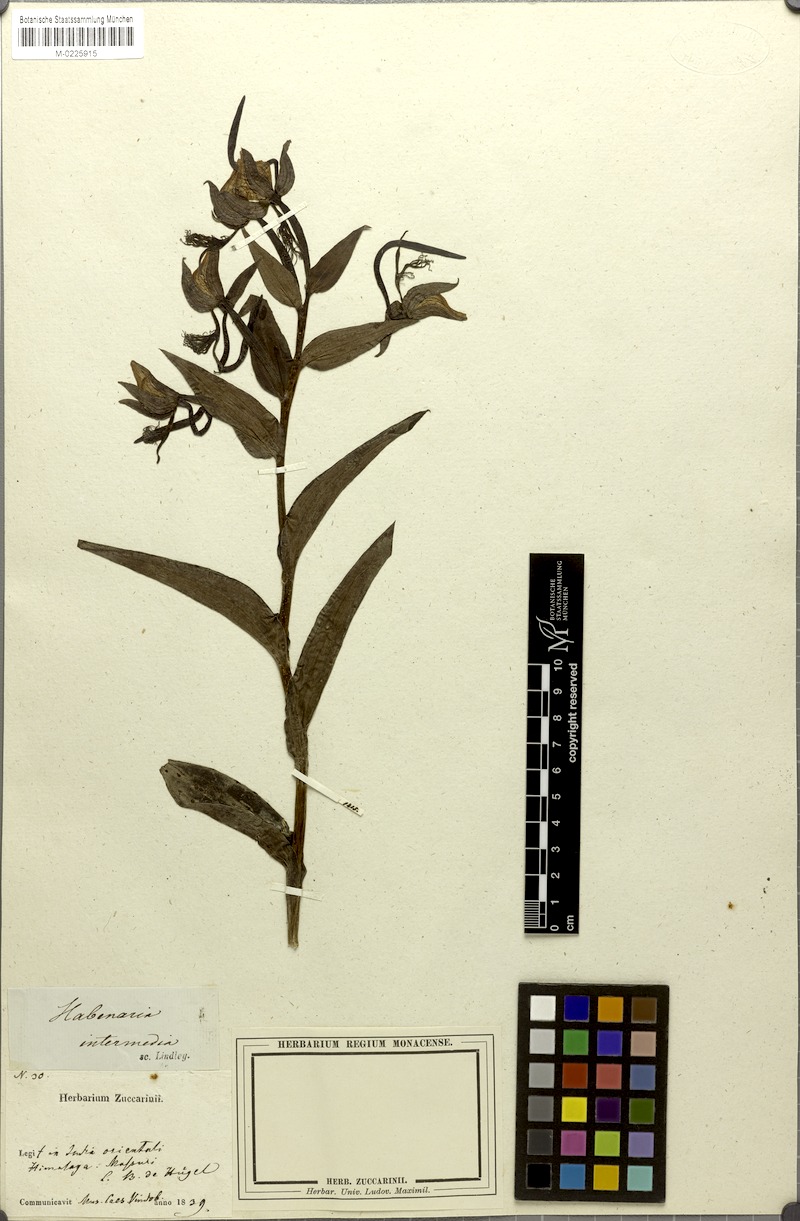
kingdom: Plantae
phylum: Tracheophyta
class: Liliopsida
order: Asparagales
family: Orchidaceae
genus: Habenaria
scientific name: Habenaria intermedia
